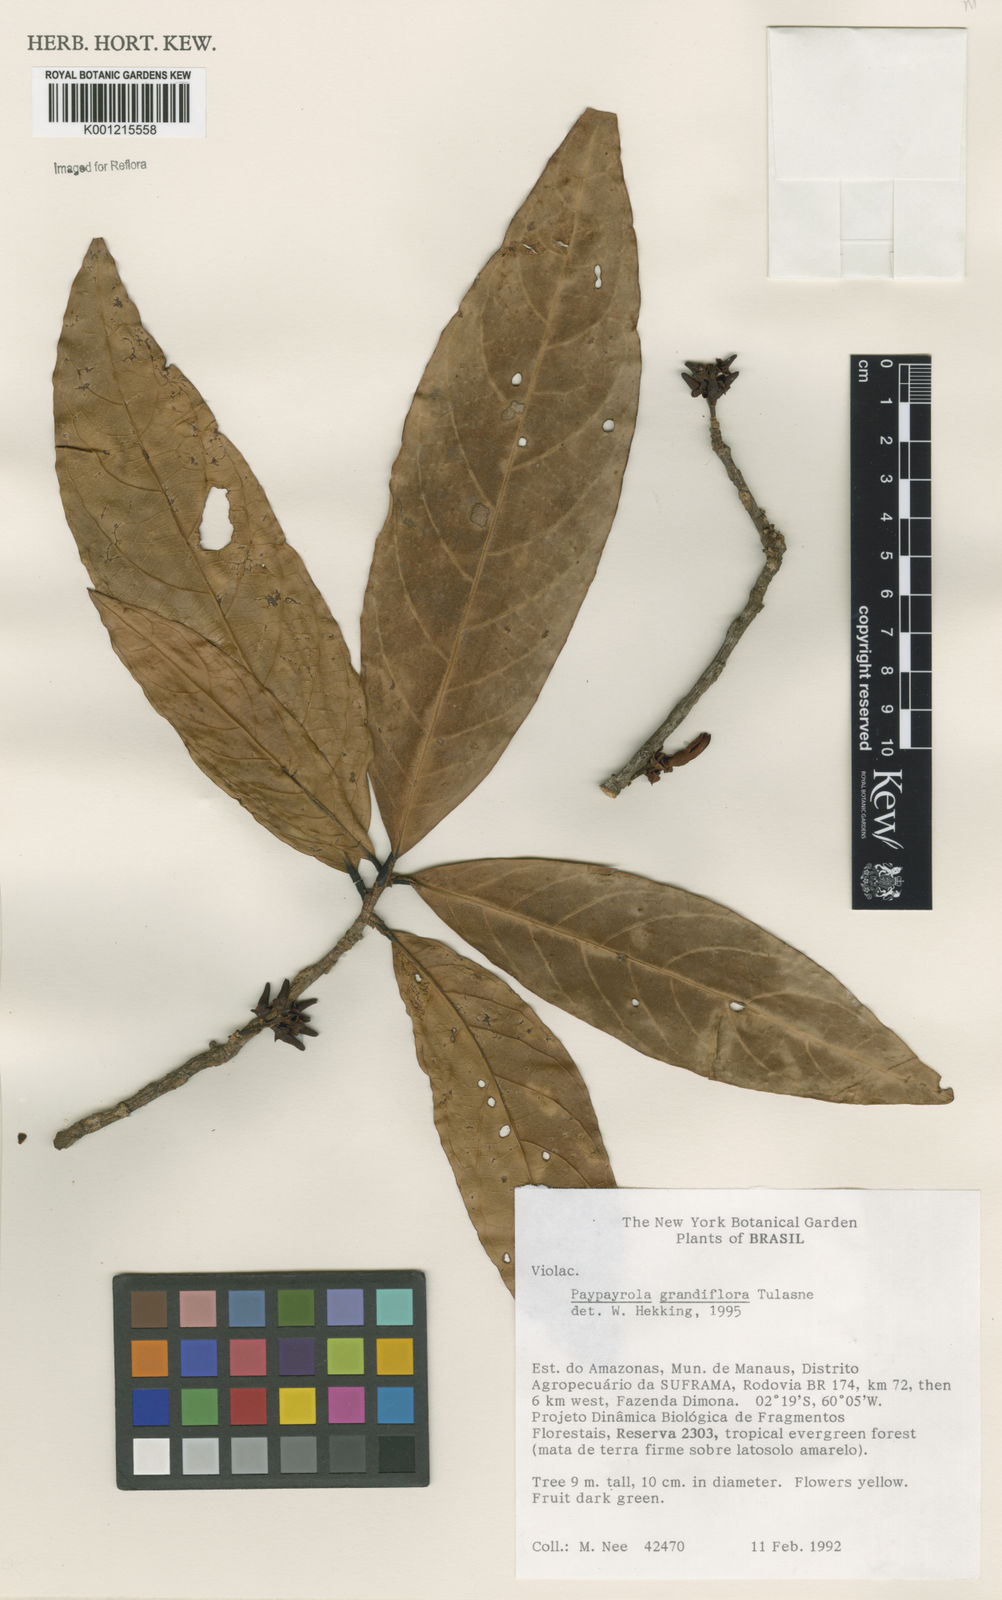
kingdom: Plantae
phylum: Tracheophyta
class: Magnoliopsida
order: Malpighiales
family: Violaceae
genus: Paypayrola
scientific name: Paypayrola grandiflora
